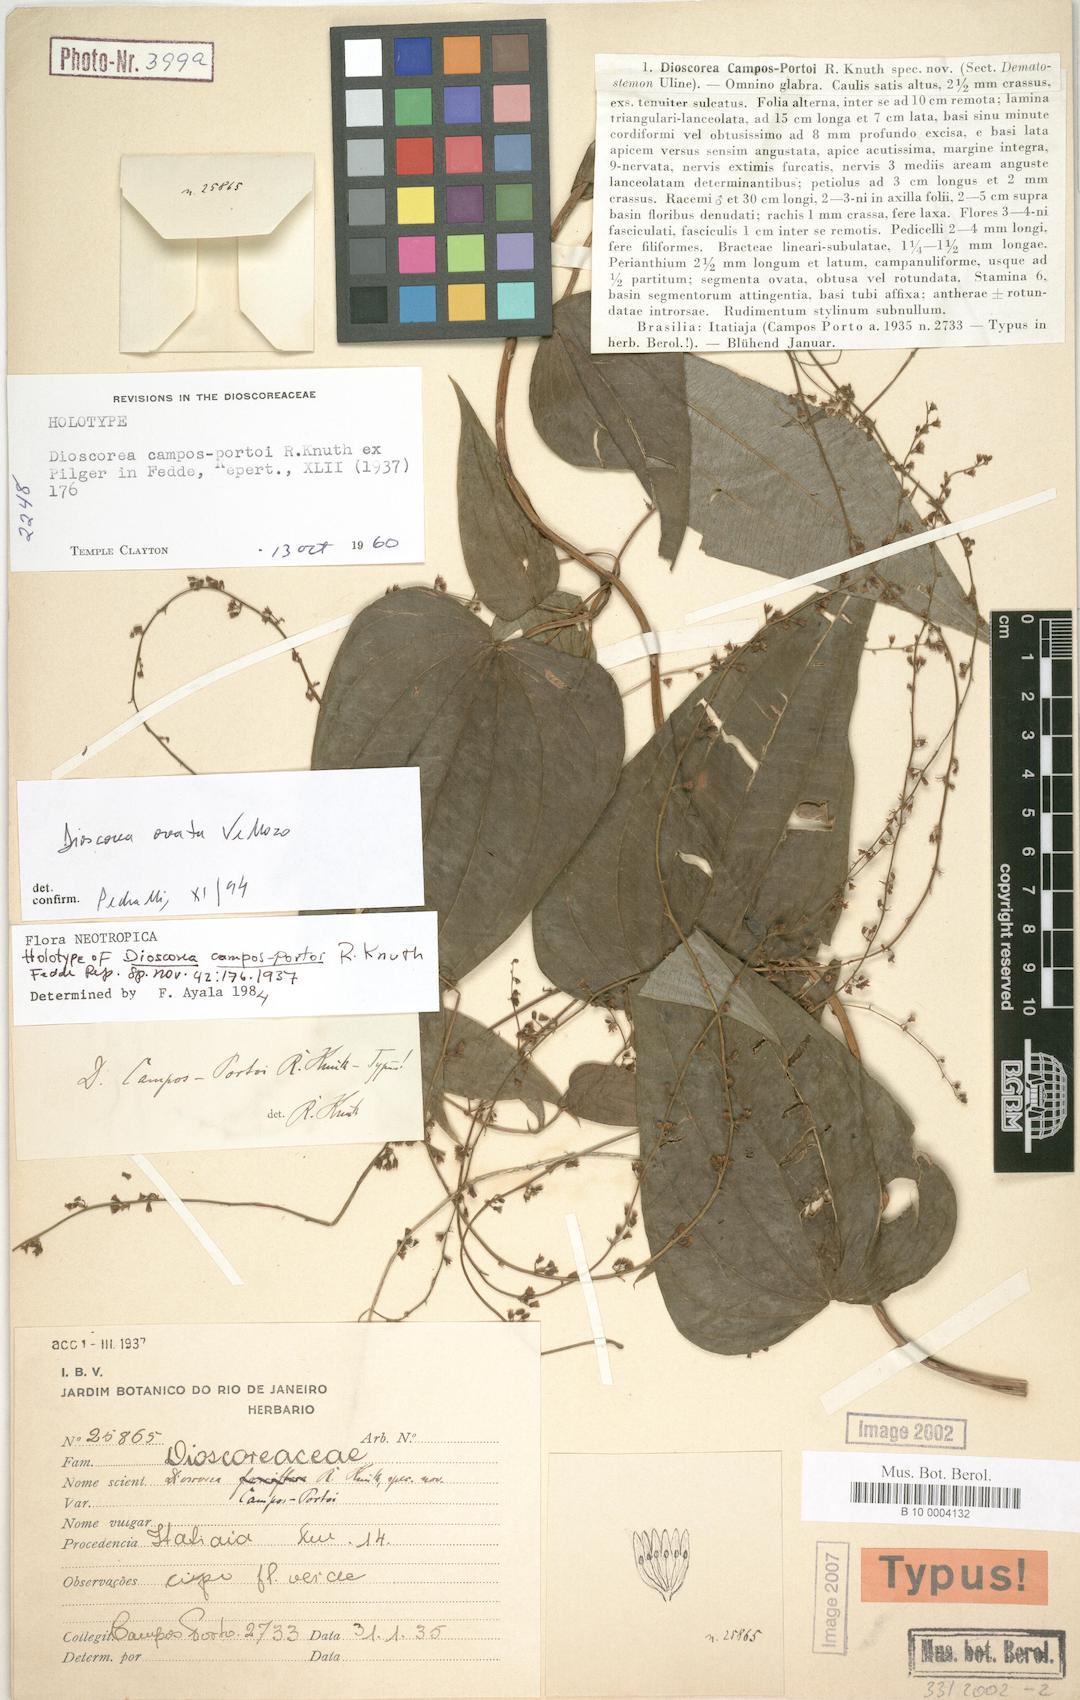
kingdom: Plantae
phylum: Tracheophyta
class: Liliopsida
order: Dioscoreales
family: Dioscoreaceae
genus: Dioscorea
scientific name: Dioscorea campos-portoi
